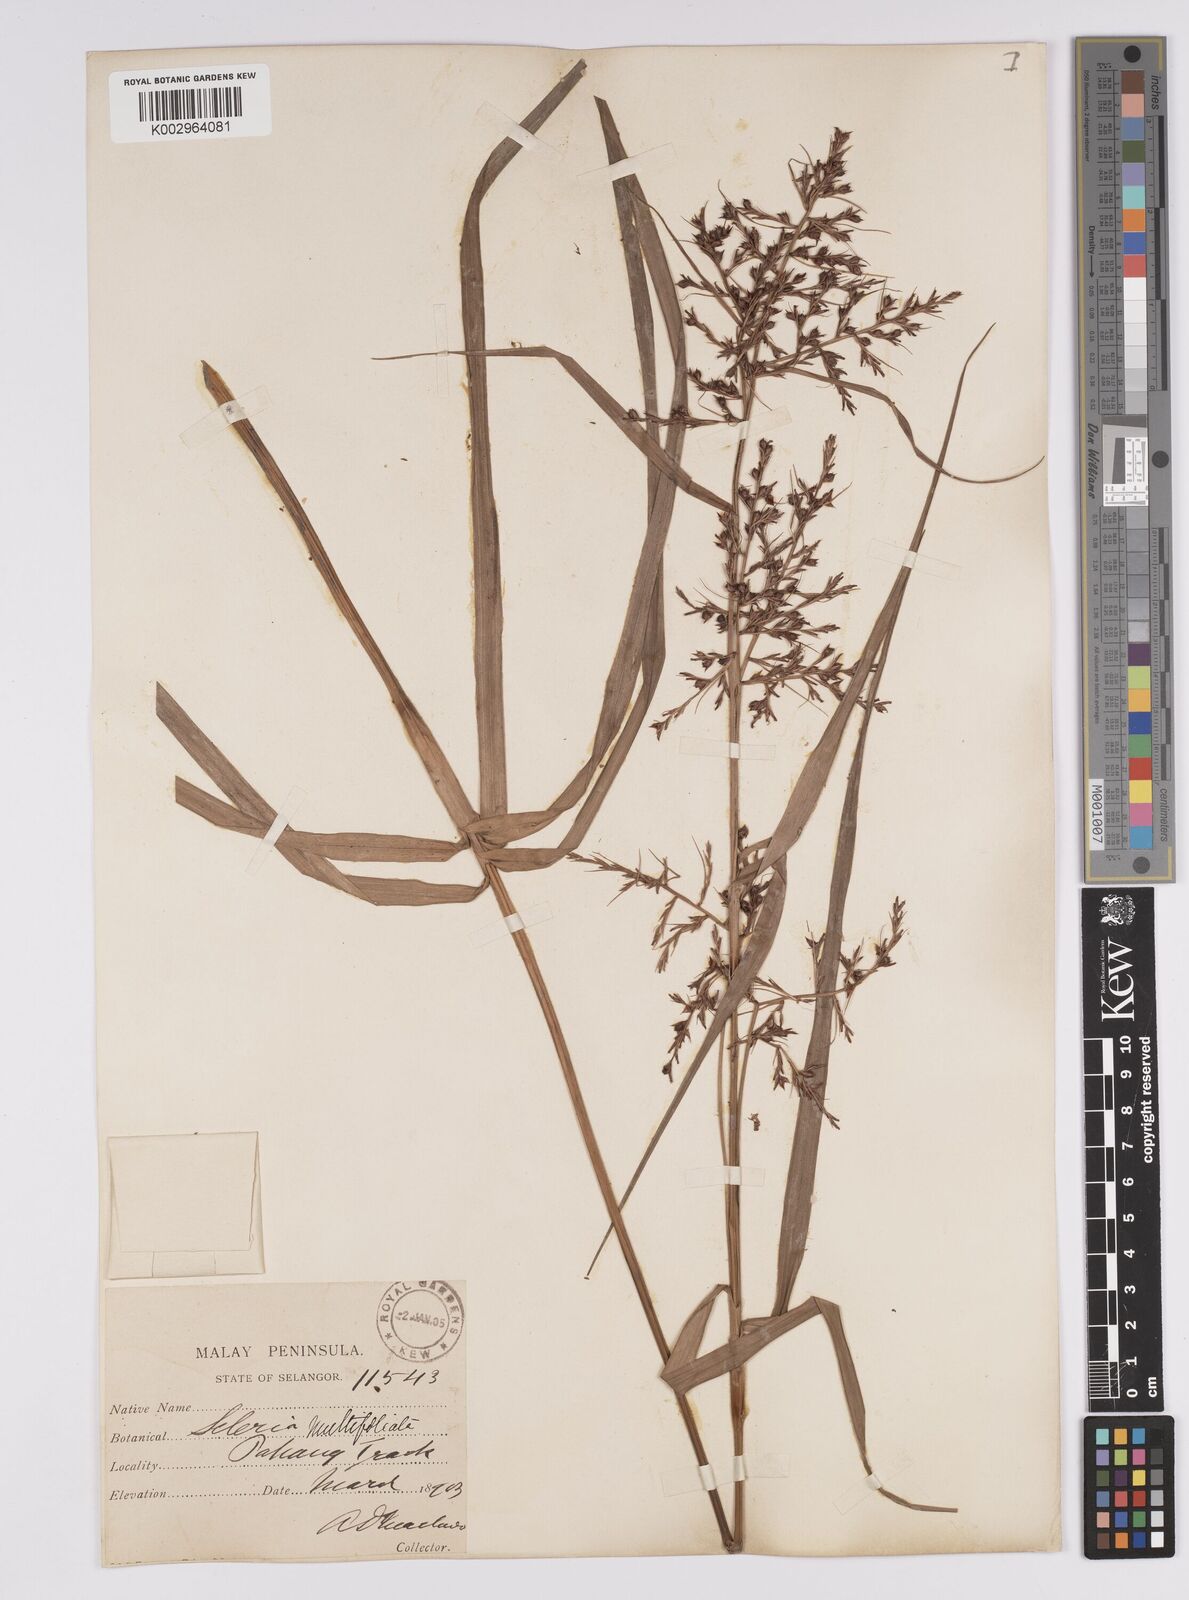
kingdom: Plantae
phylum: Tracheophyta
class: Liliopsida
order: Poales
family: Cyperaceae
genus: Scleria
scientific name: Scleria purpurascens
